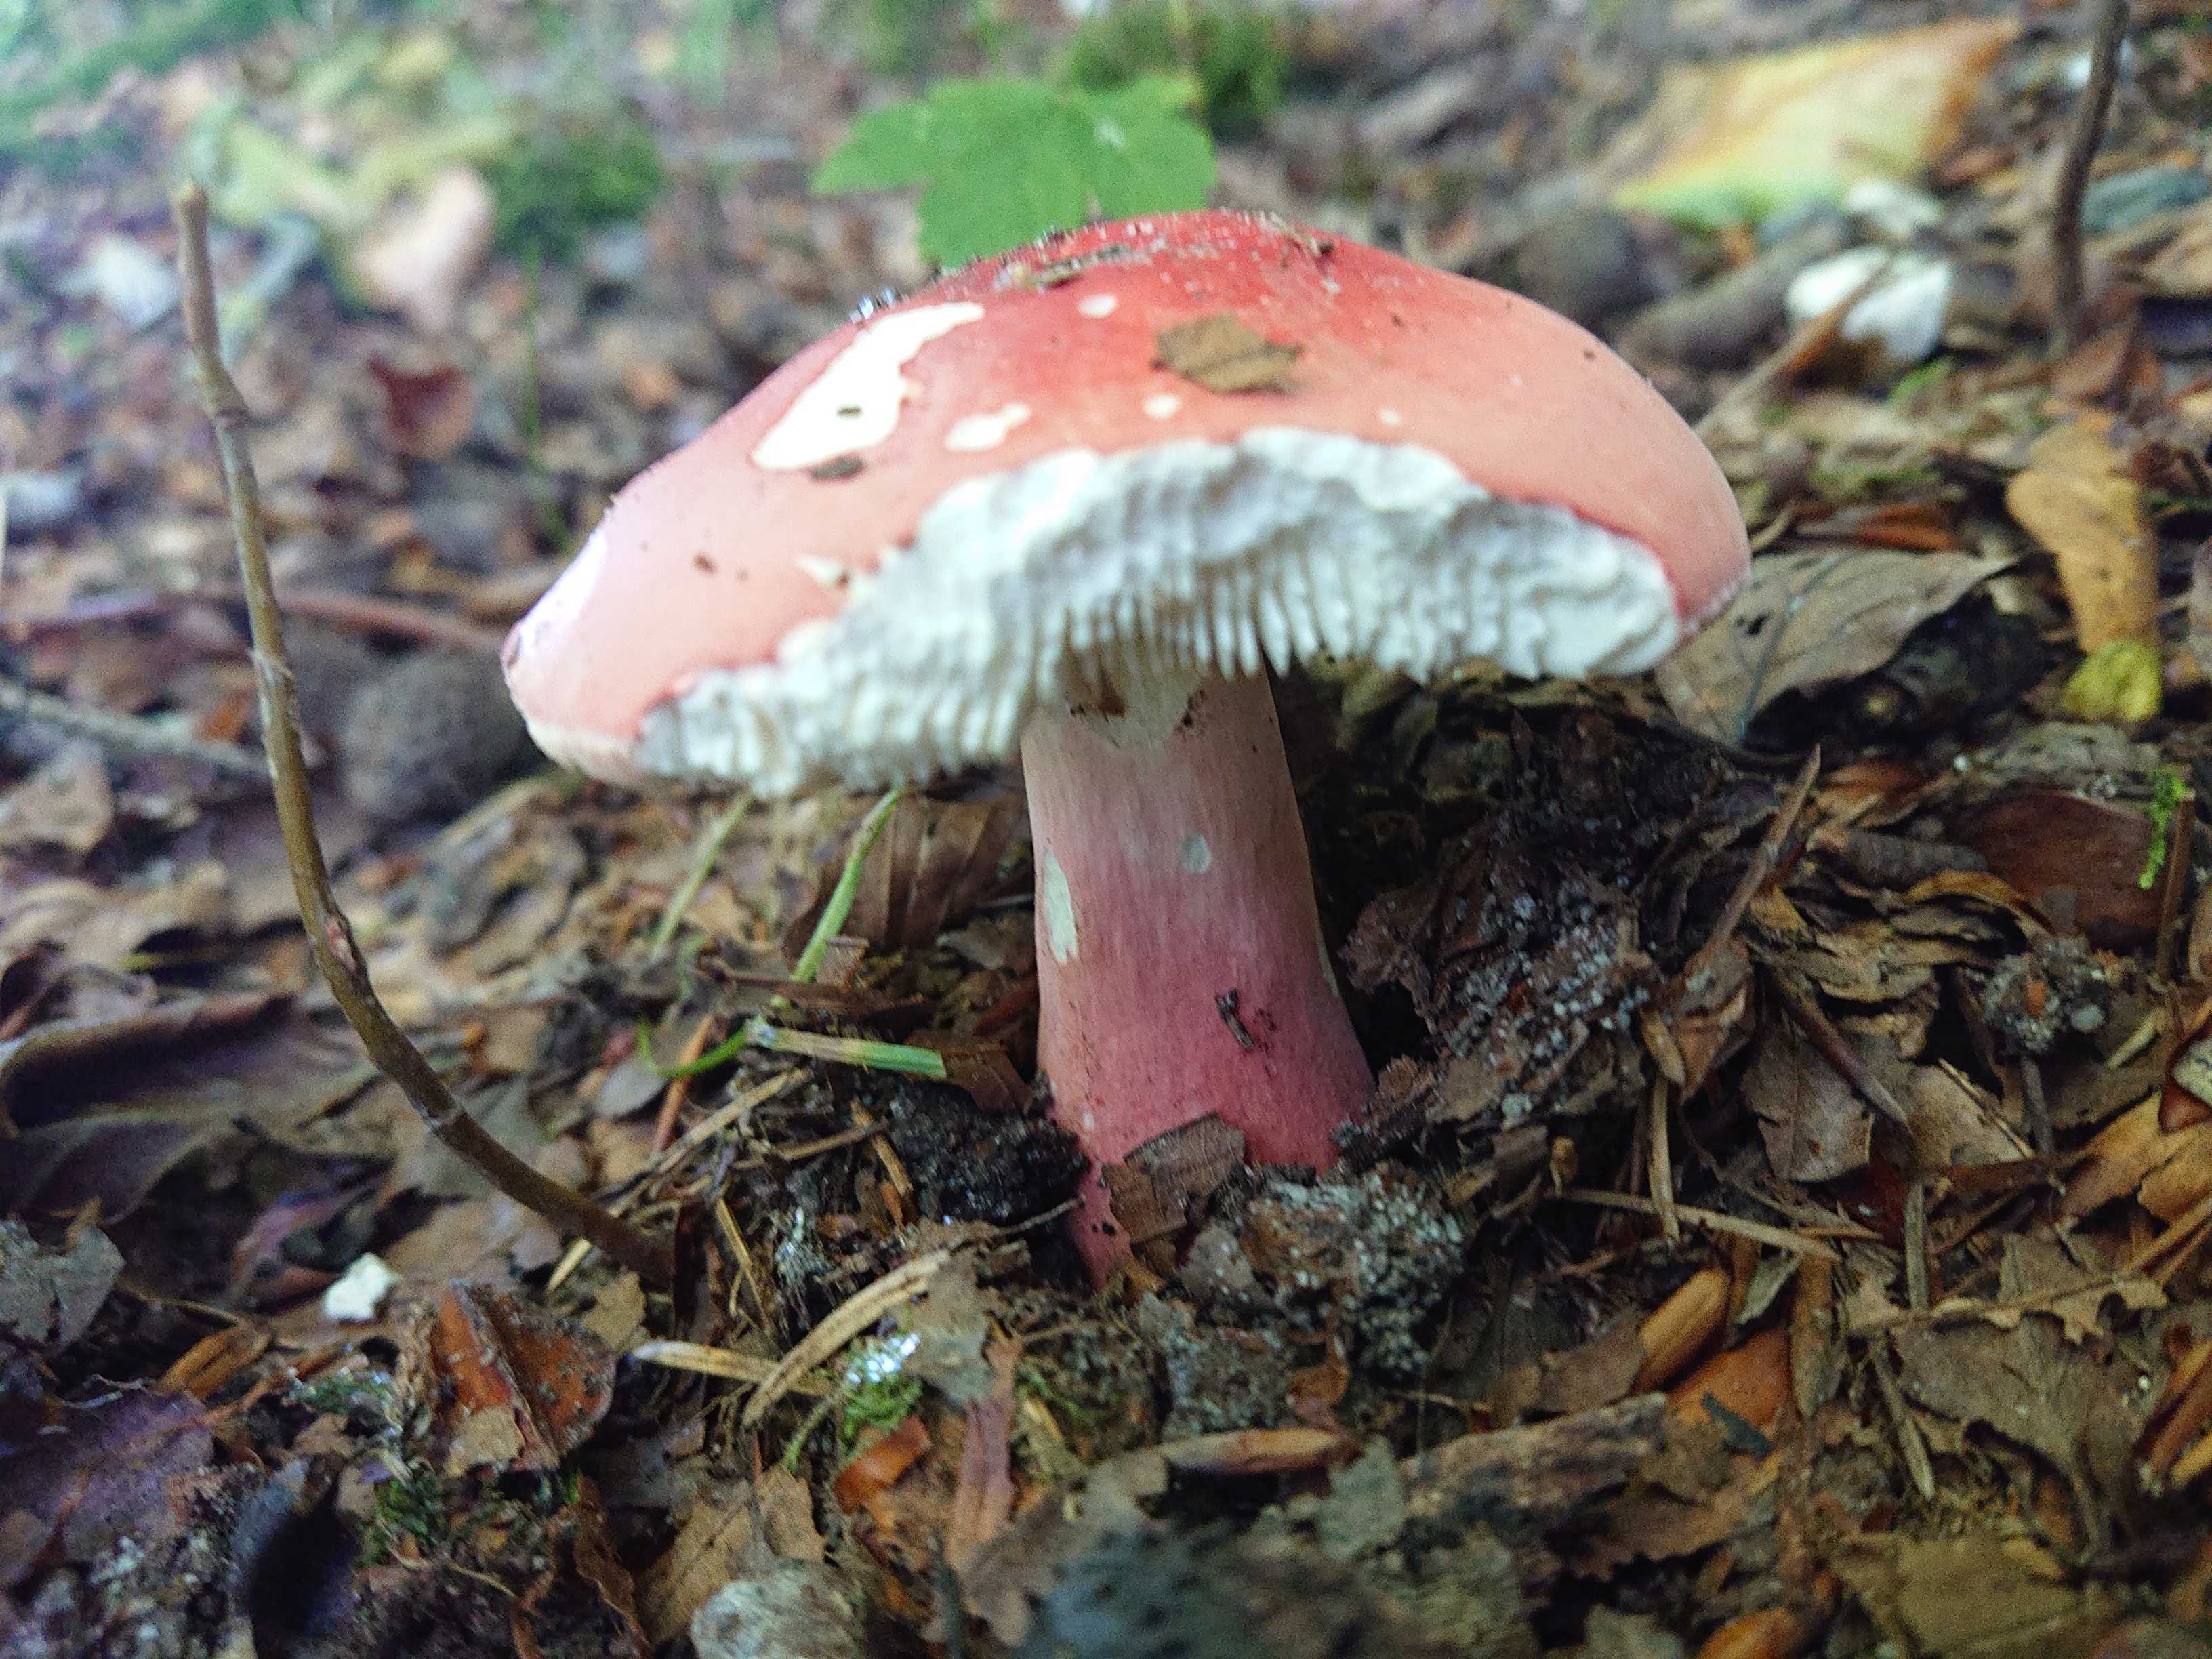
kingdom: Fungi
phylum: Basidiomycota
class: Agaricomycetes
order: Russulales
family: Russulaceae
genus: Russula
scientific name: Russula rosea
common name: fastkødet skørhat
